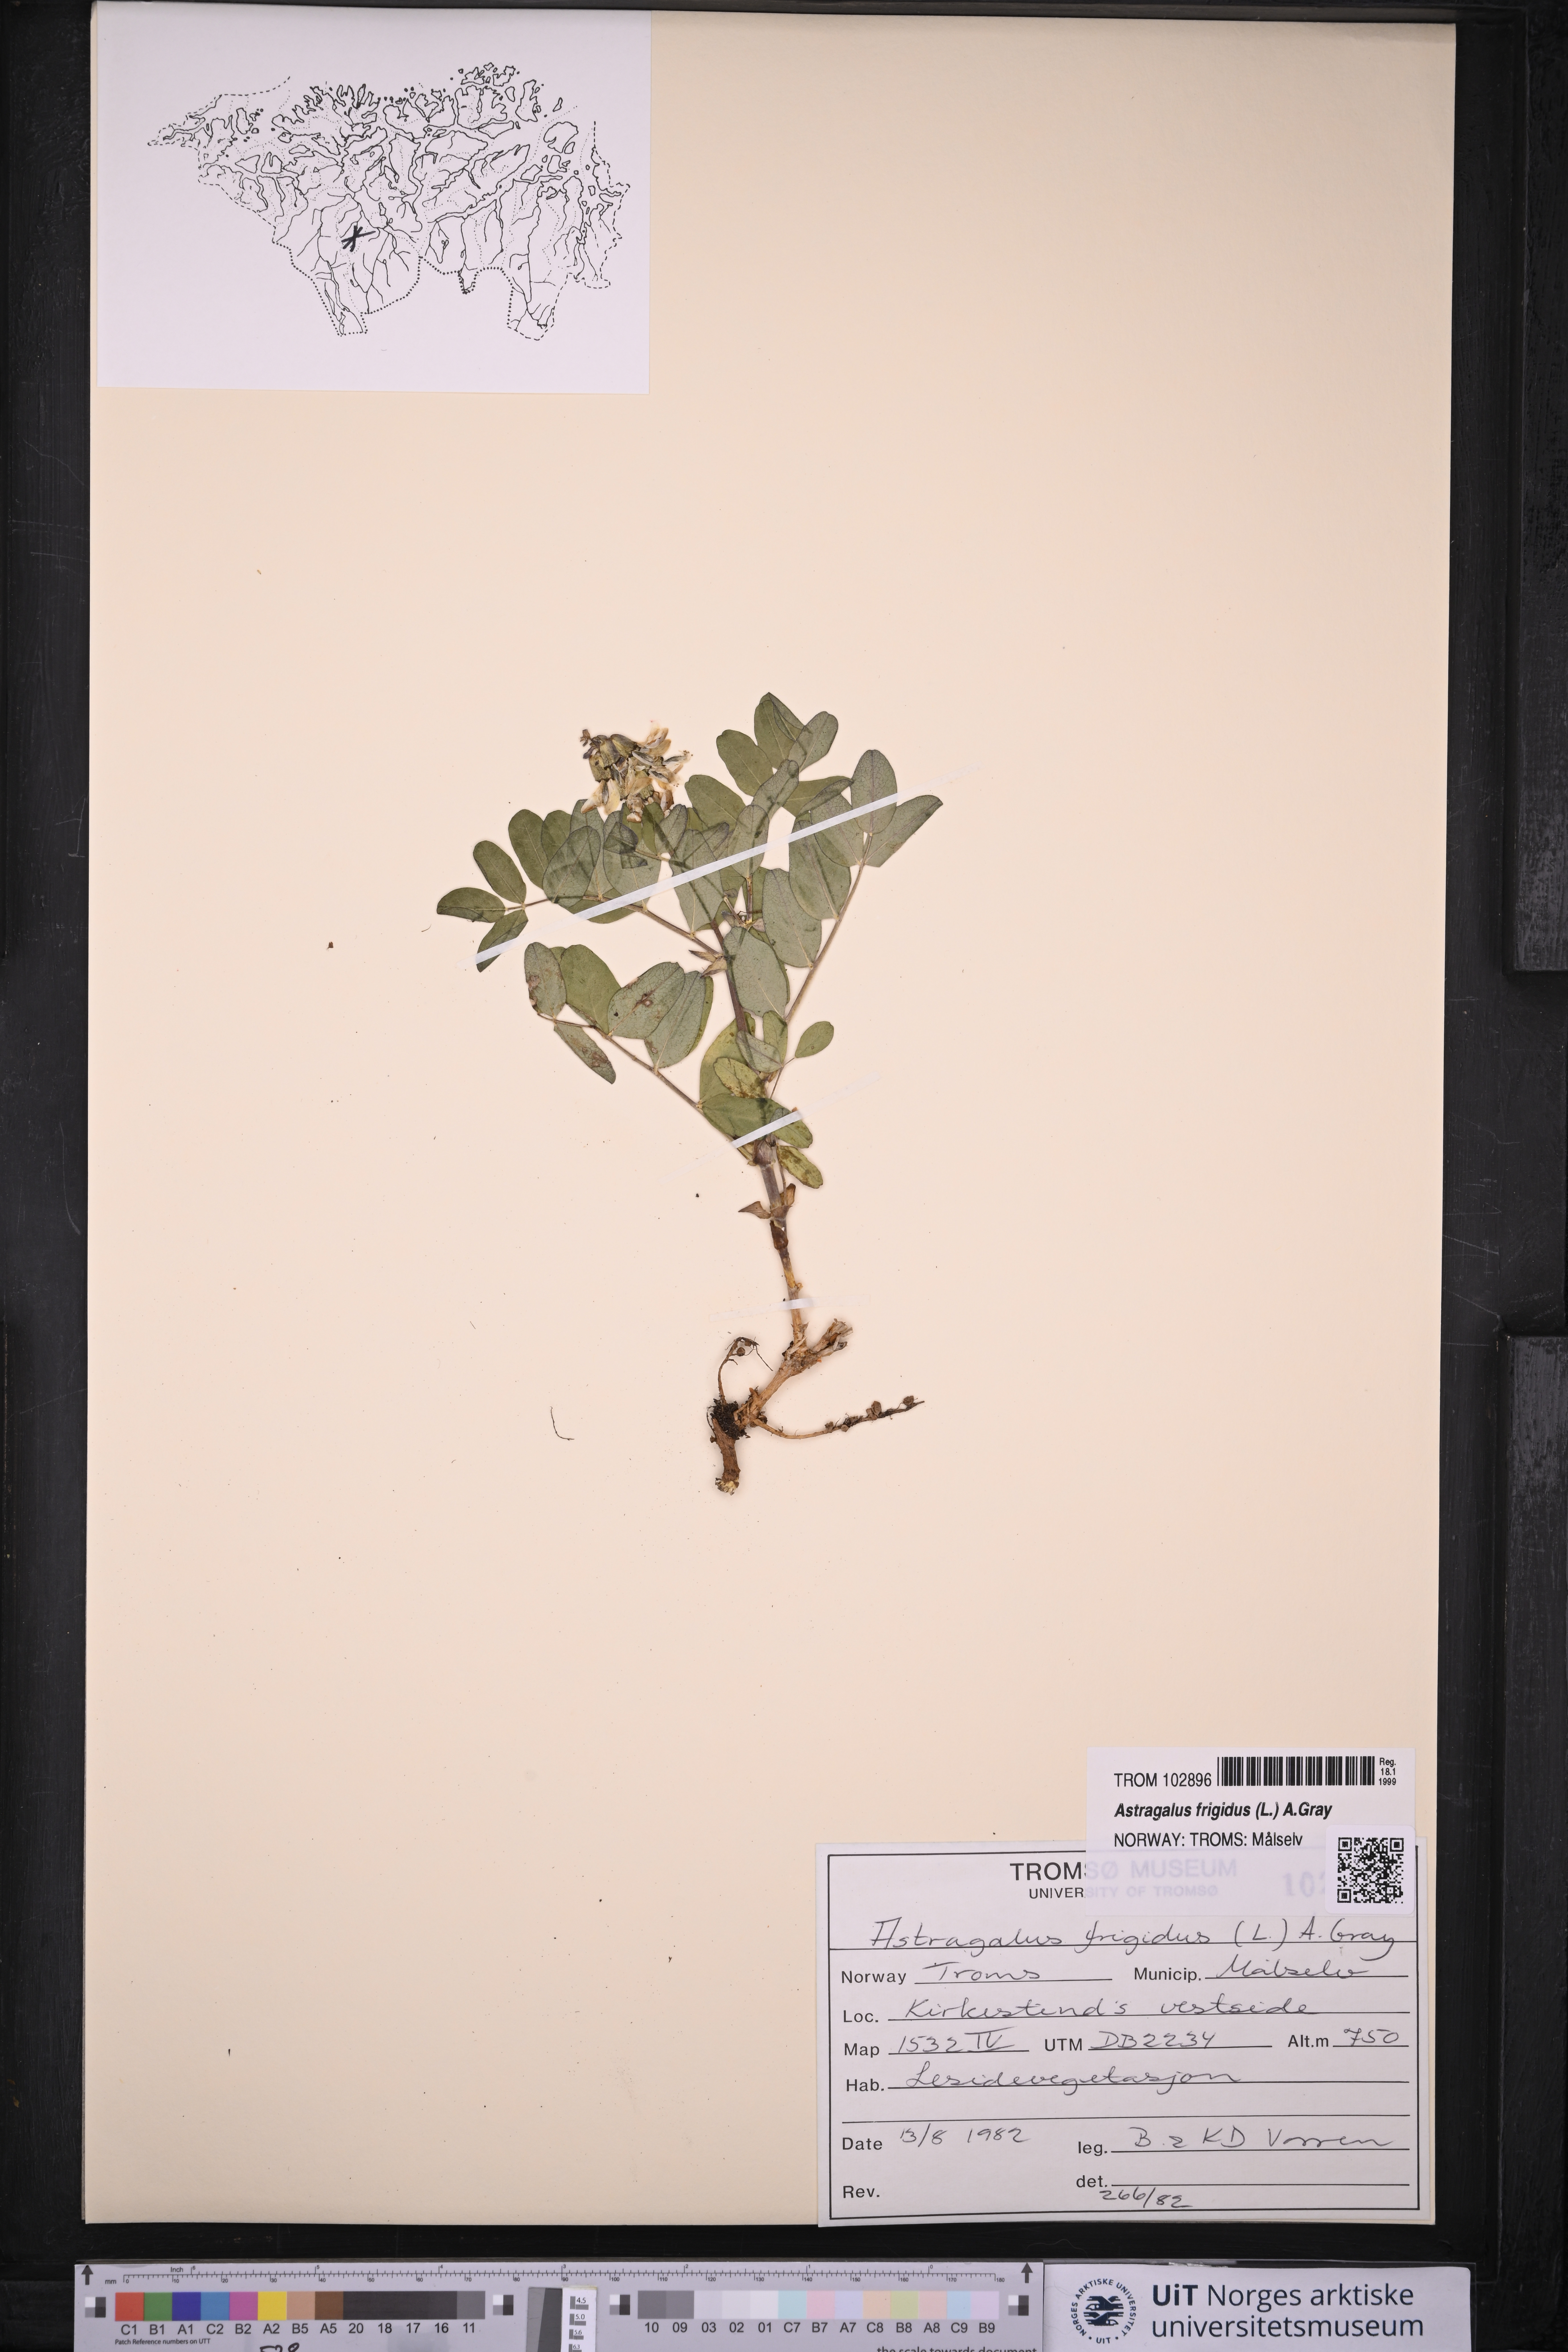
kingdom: Plantae
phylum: Tracheophyta
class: Magnoliopsida
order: Fabales
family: Fabaceae
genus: Astragalus
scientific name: Astragalus frigidus
